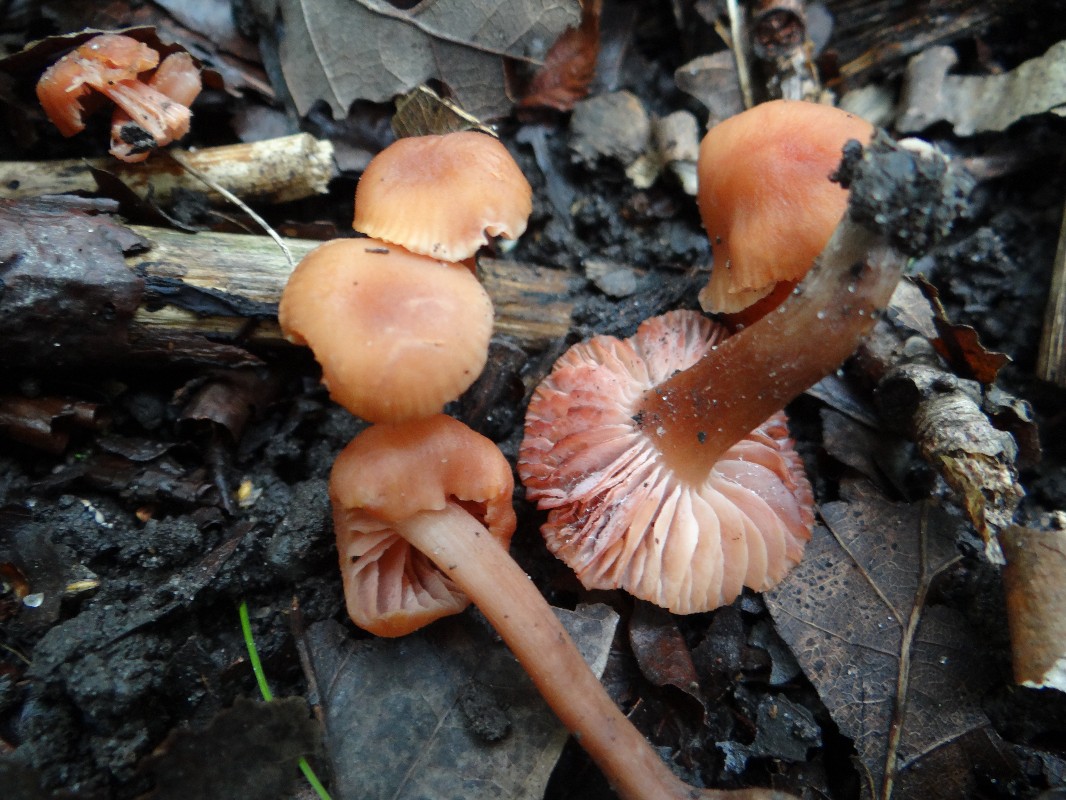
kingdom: Fungi
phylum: Basidiomycota
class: Agaricomycetes
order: Agaricales
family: Hydnangiaceae
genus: Laccaria
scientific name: Laccaria laccata
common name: rød ametysthat
